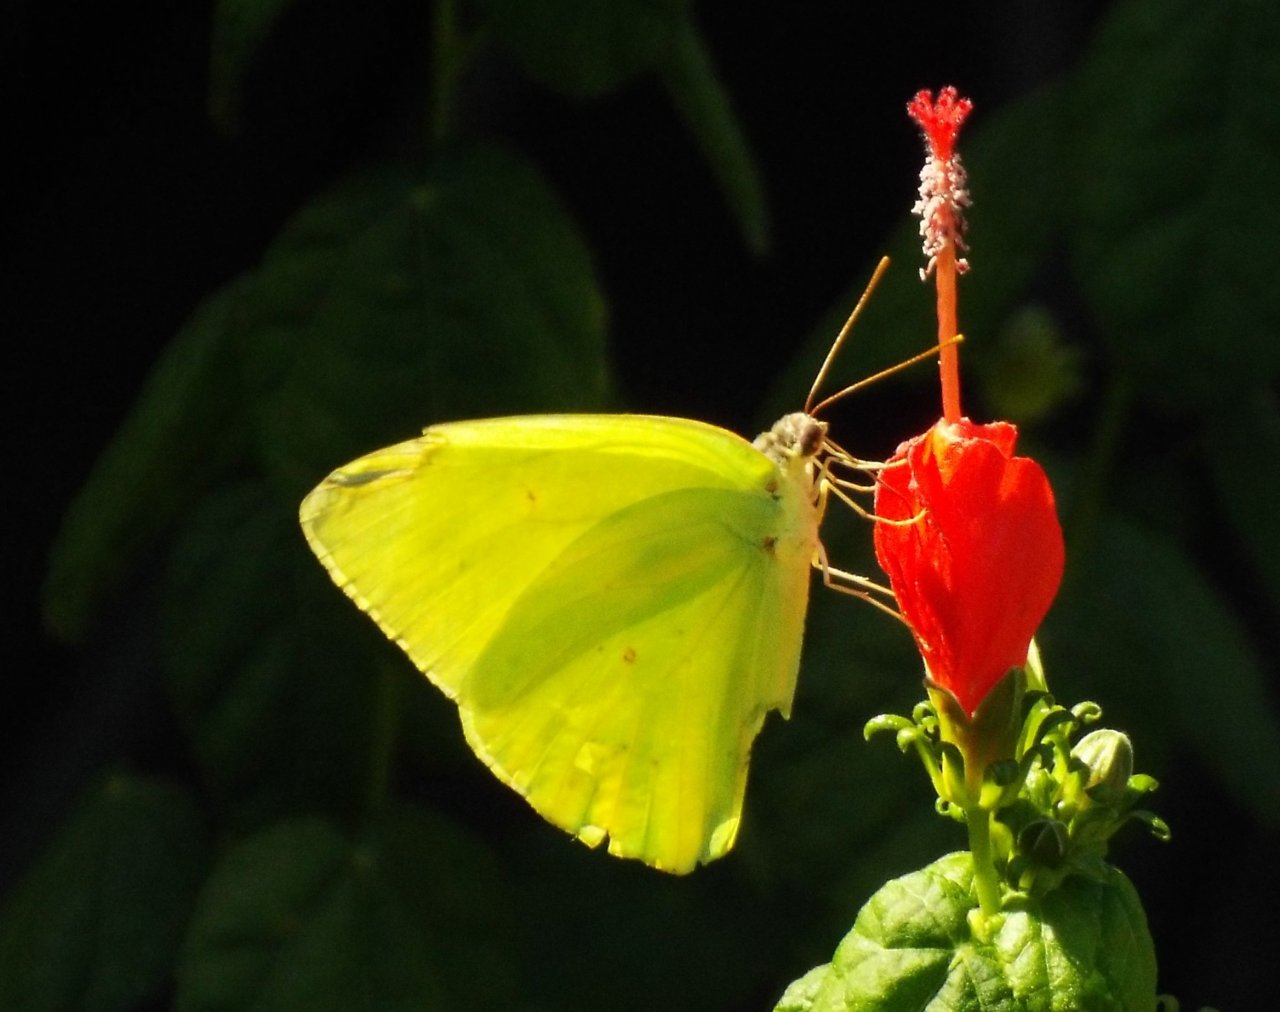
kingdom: Animalia
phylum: Arthropoda
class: Insecta
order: Lepidoptera
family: Pieridae
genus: Phoebis
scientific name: Phoebis sennae
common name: Cloudless Sulphur
